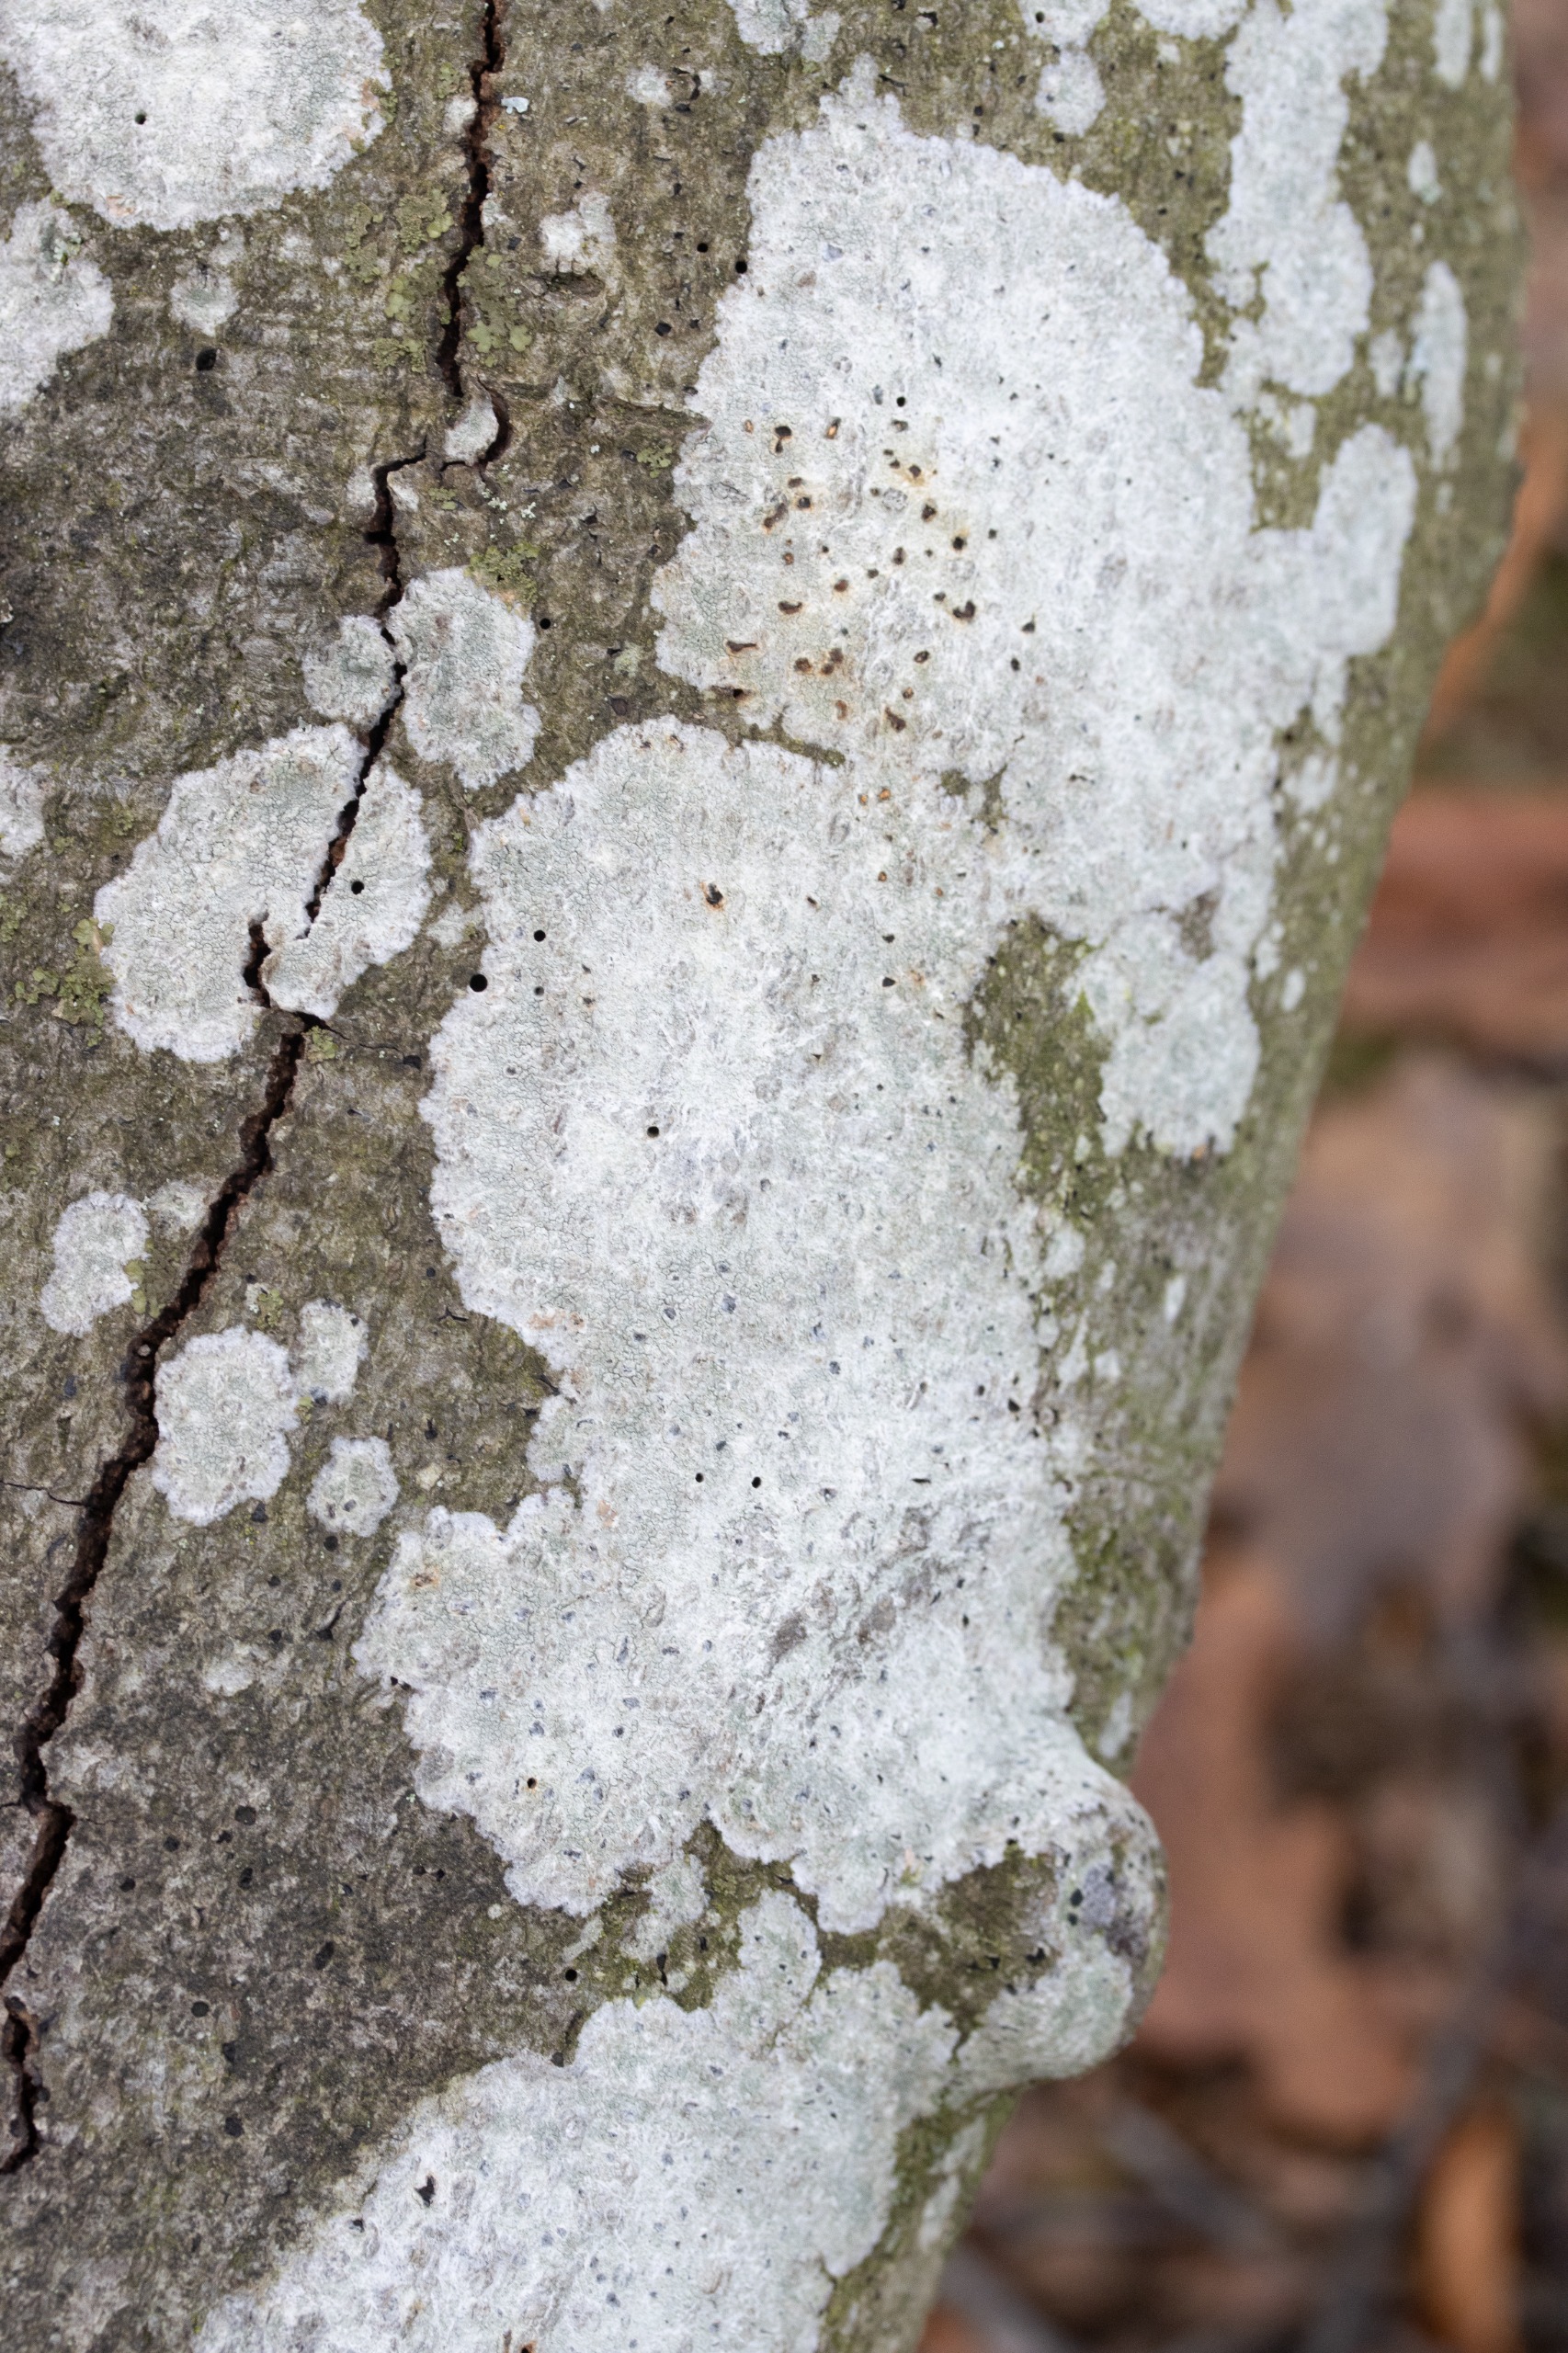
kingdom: Fungi
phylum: Ascomycota
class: Lecanoromycetes
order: Ostropales
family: Phlyctidaceae
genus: Phlyctis
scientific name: Phlyctis argena
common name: Almindelig sølvlav
